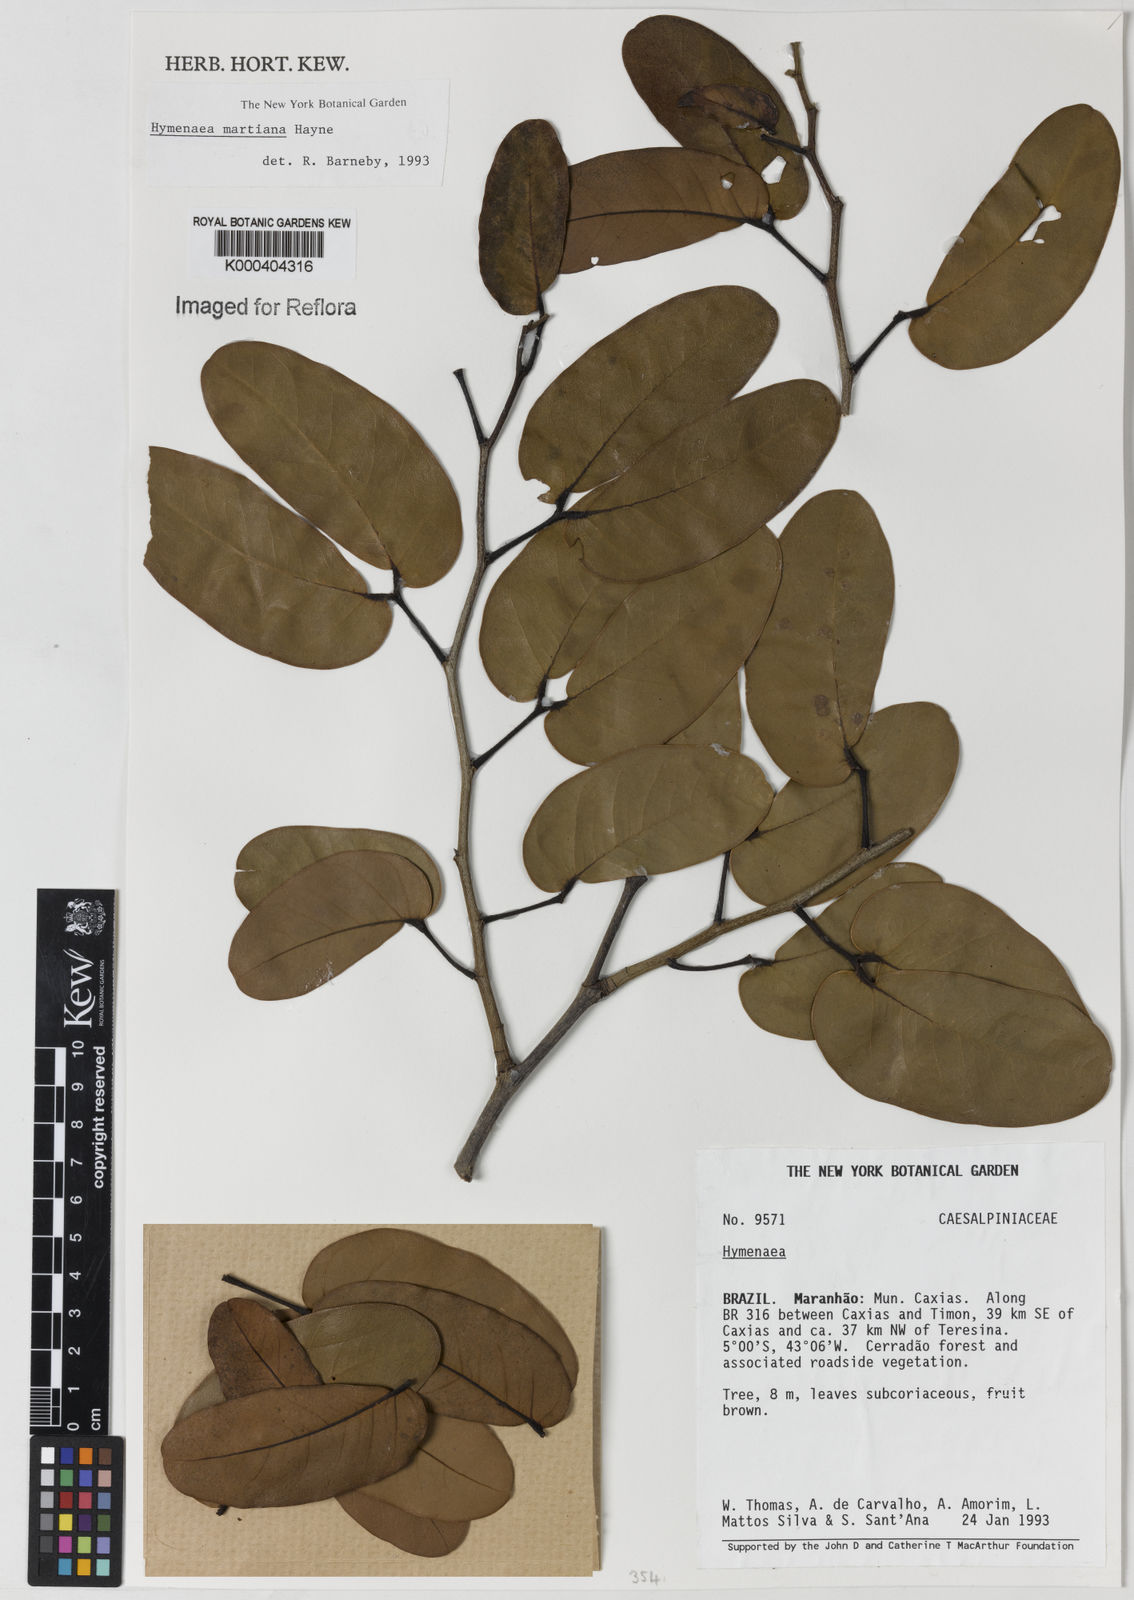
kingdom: Plantae
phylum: Tracheophyta
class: Magnoliopsida
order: Fabales
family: Fabaceae
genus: Hymenaea
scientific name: Hymenaea
